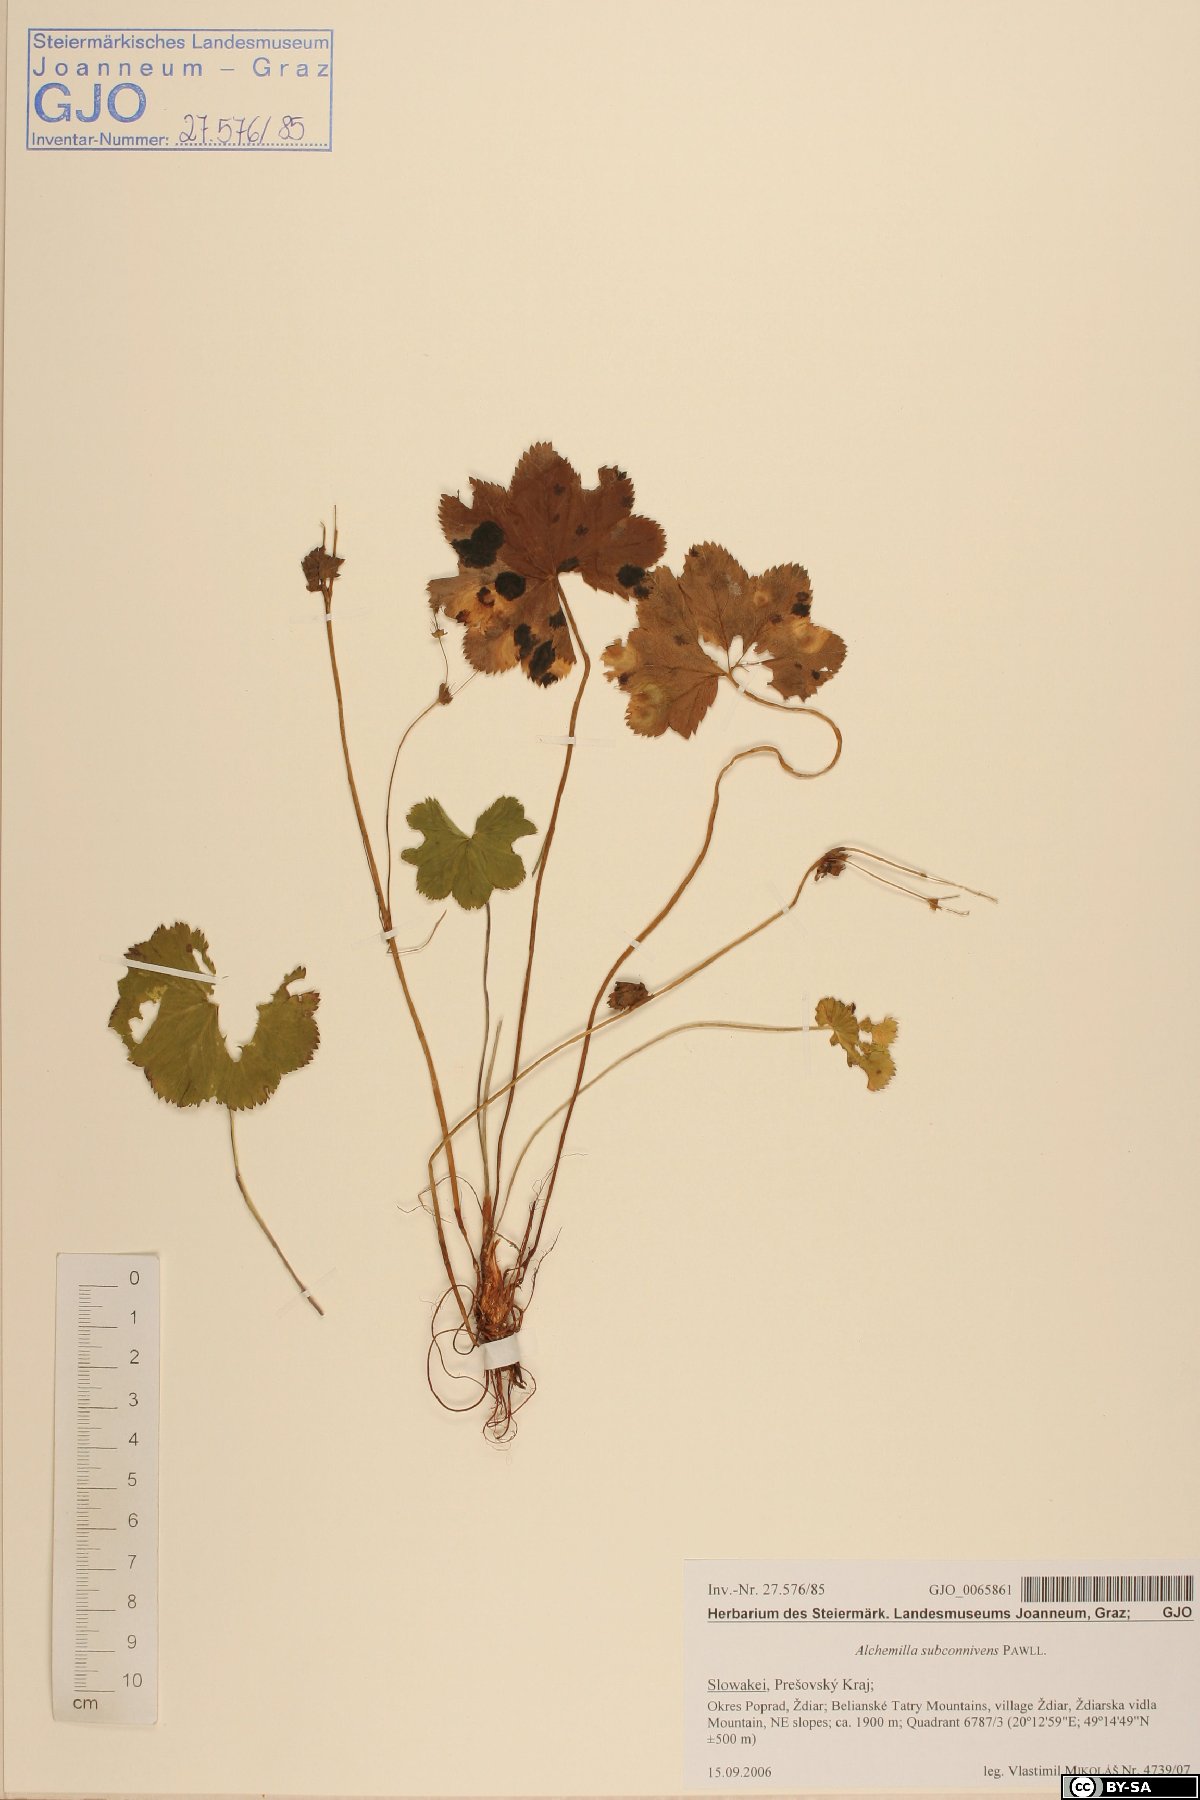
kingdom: Plantae
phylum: Tracheophyta
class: Magnoliopsida
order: Rosales
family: Rosaceae
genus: Alchemilla
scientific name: Alchemilla connivens
